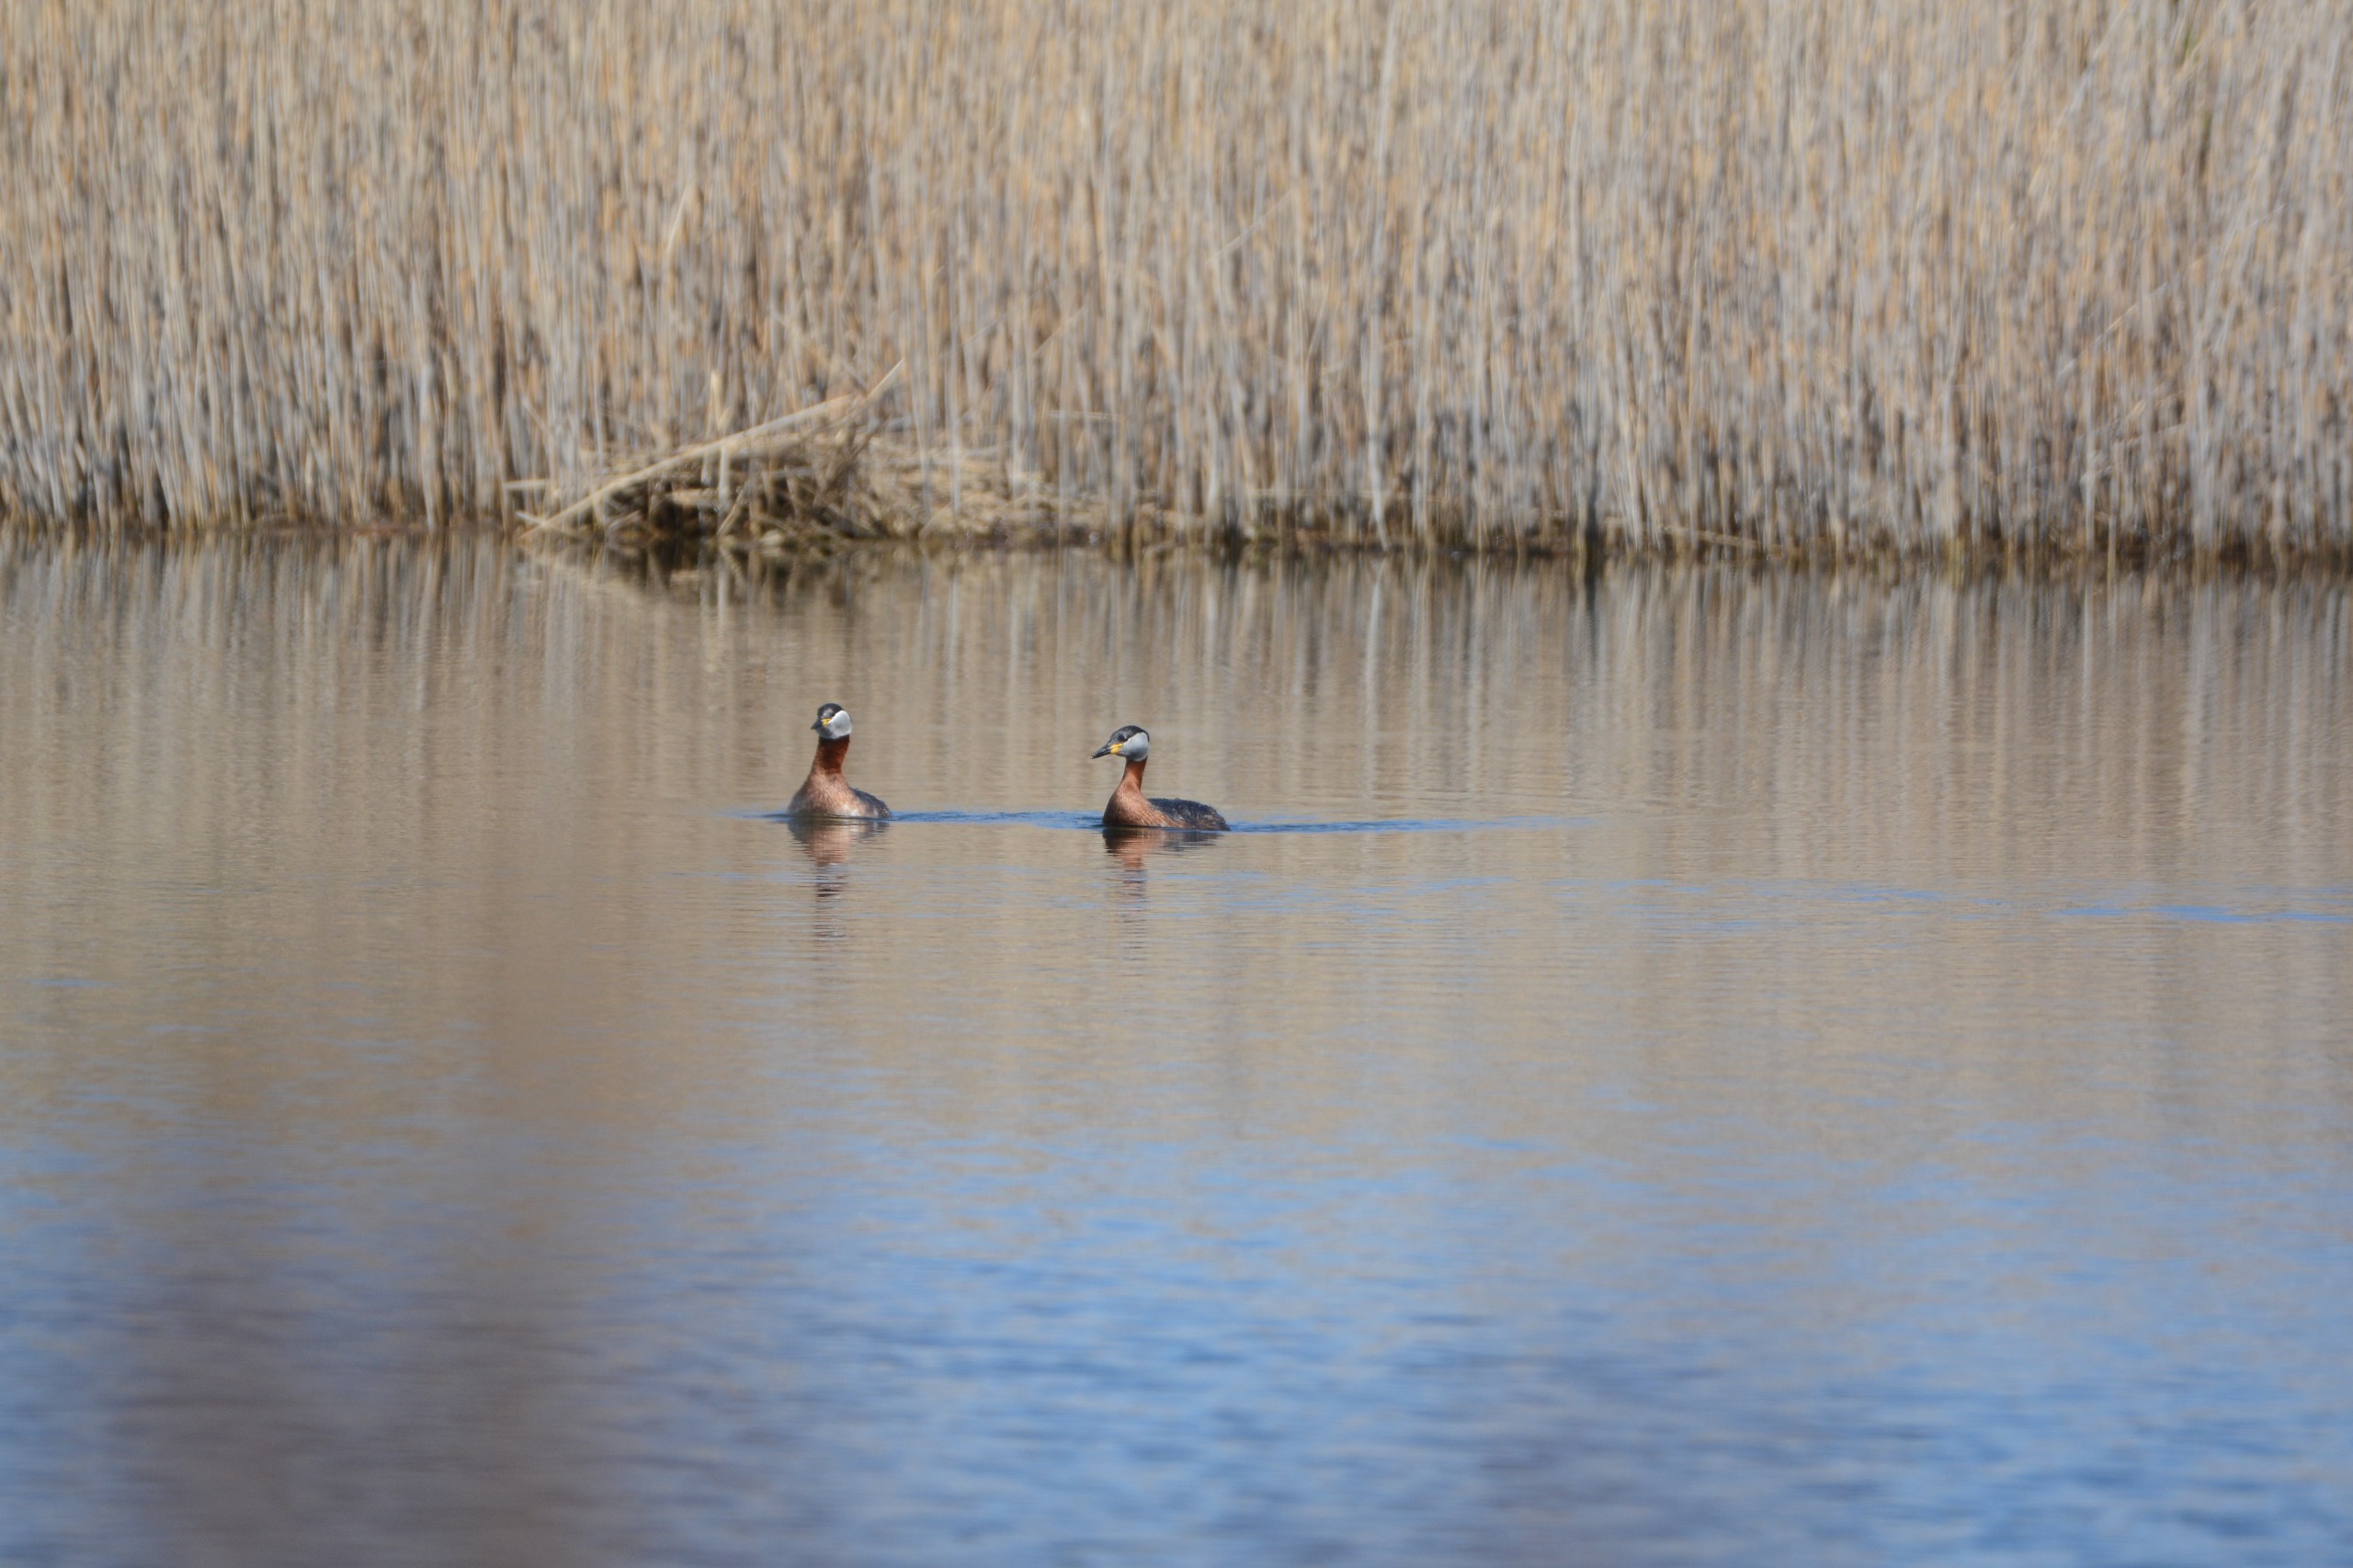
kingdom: Animalia
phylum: Chordata
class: Aves
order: Podicipediformes
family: Podicipedidae
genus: Podiceps
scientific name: Podiceps grisegena
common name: Gråstrubet lappedykker
